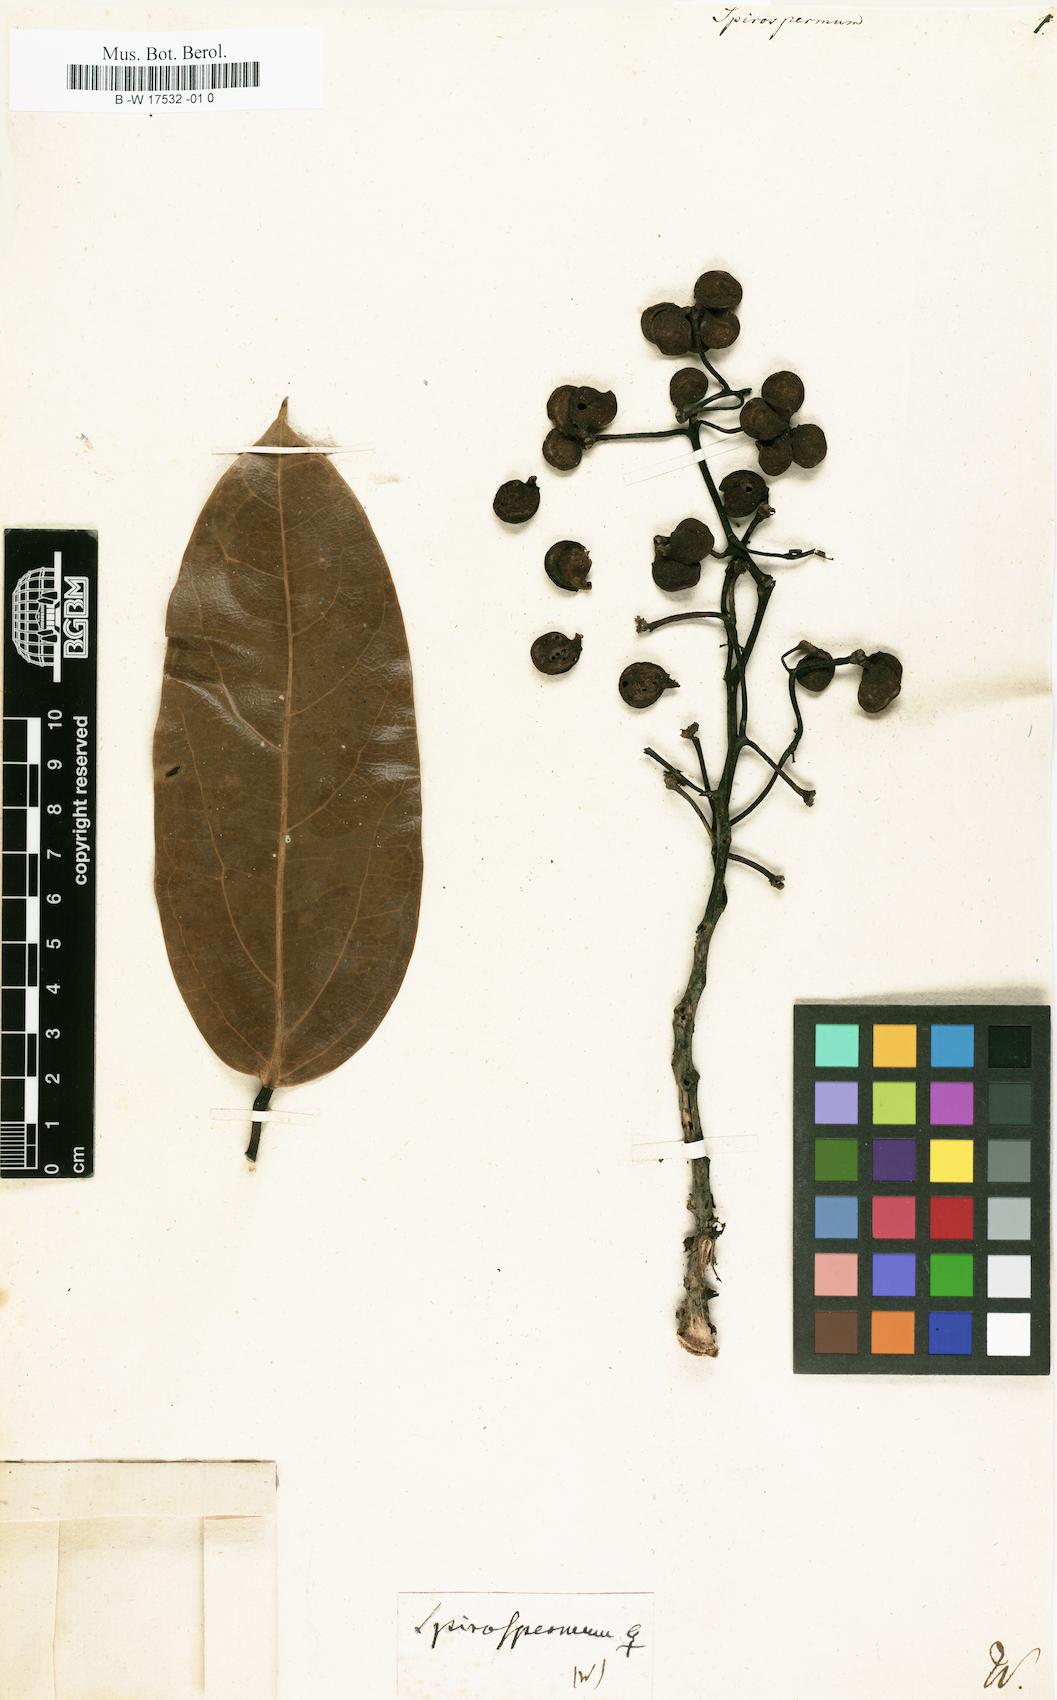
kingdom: Plantae
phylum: Tracheophyta
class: Magnoliopsida
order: Ranunculales
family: Menispermaceae
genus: Spirospermum
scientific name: Spirospermum
